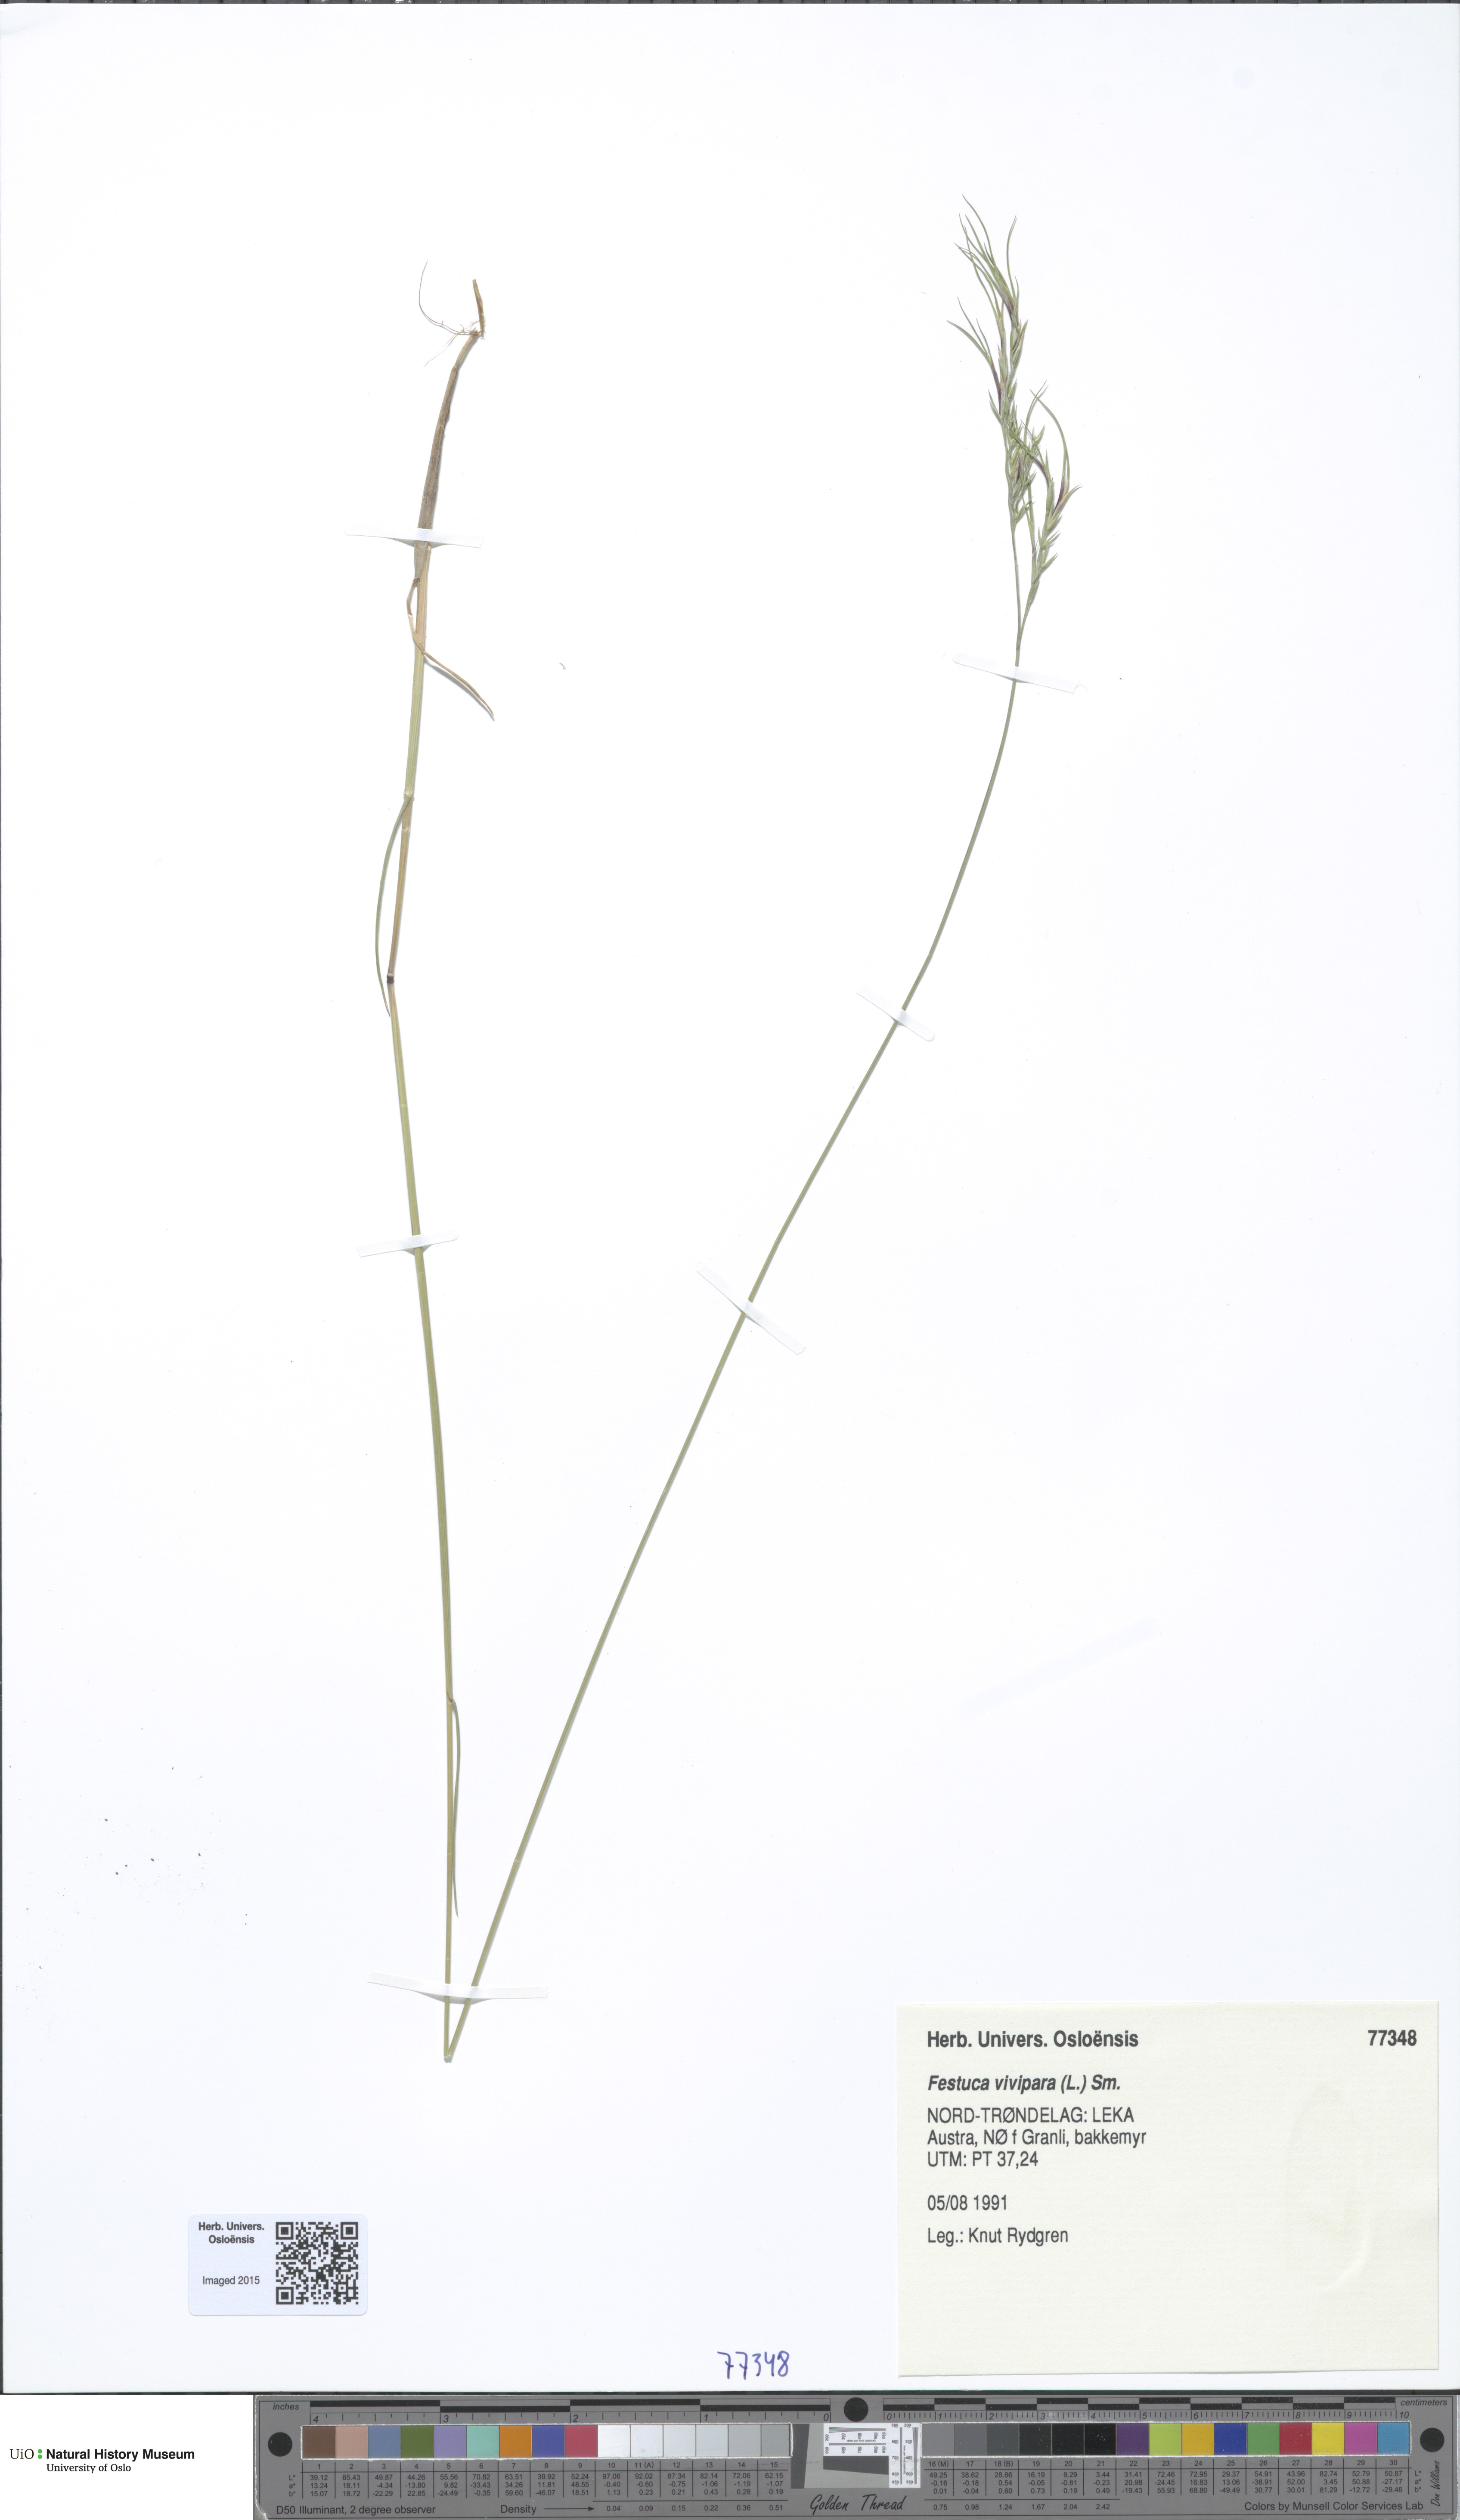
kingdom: Plantae
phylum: Tracheophyta
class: Liliopsida
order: Poales
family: Poaceae
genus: Festuca
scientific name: Festuca vivipara
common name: Viviparous sheep's-fescue
